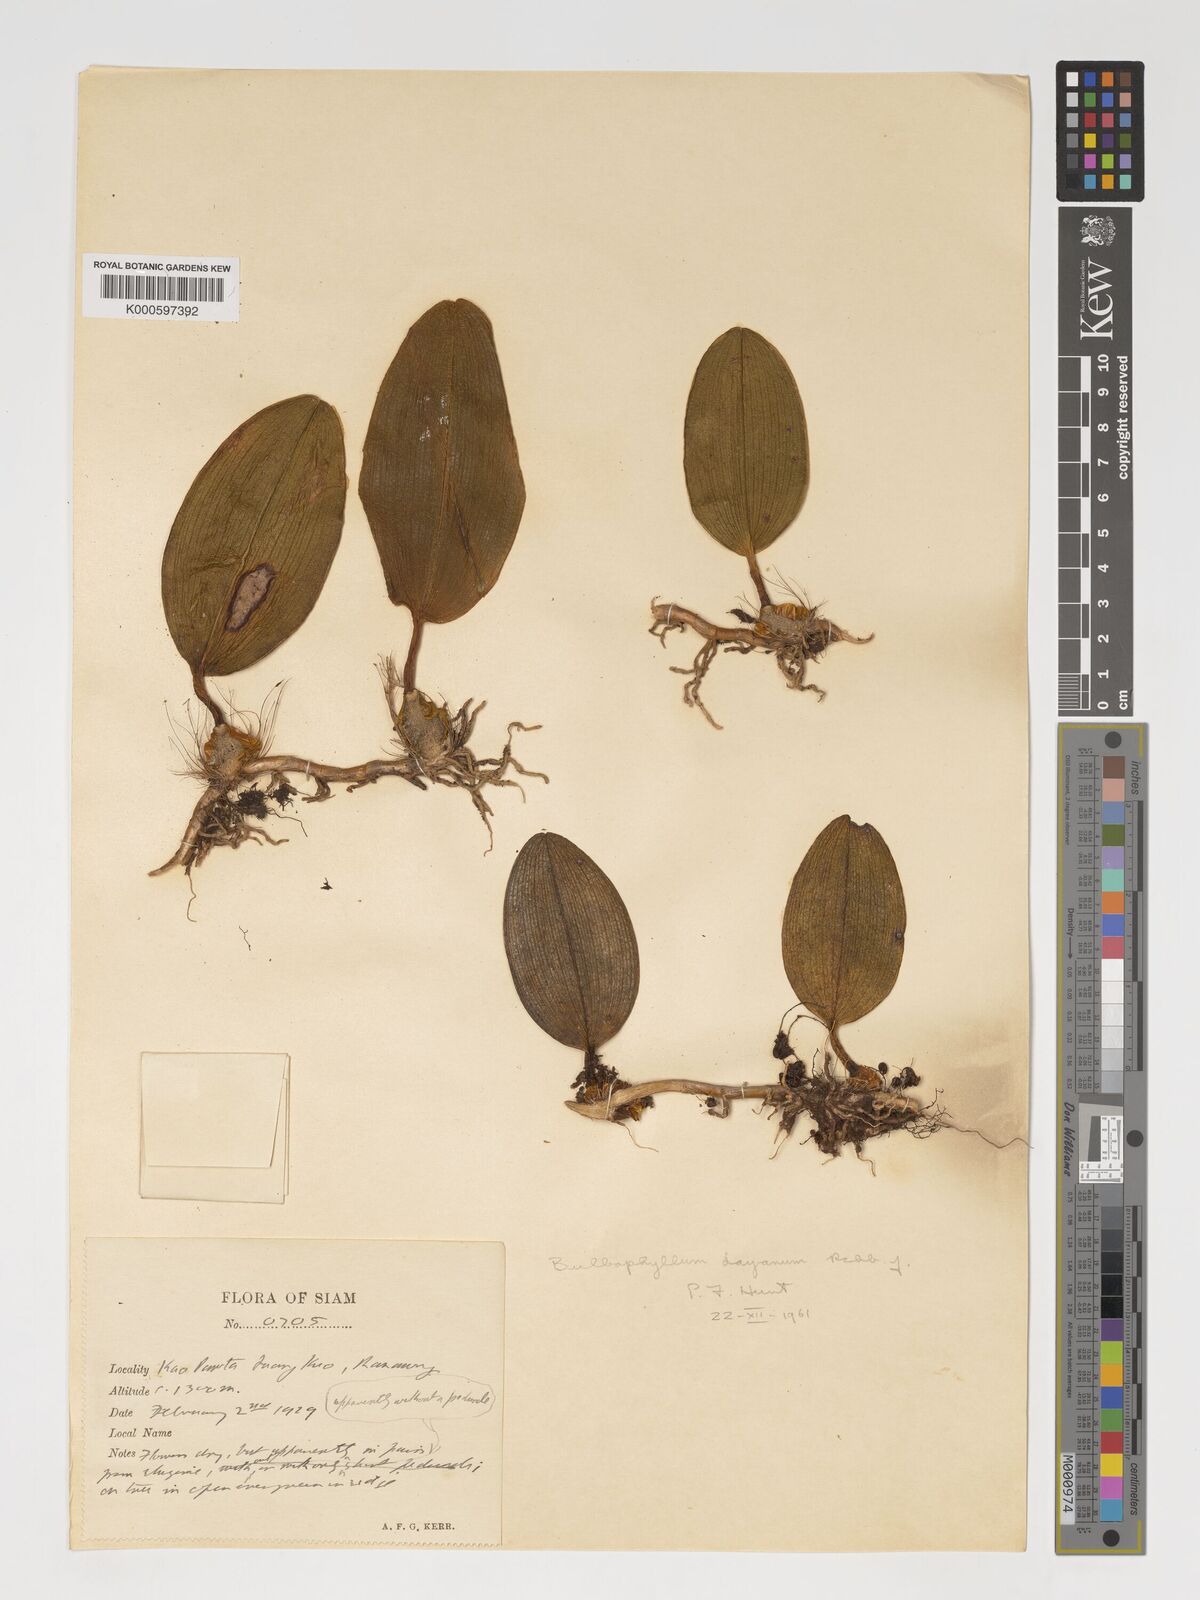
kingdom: Plantae
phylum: Tracheophyta
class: Liliopsida
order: Asparagales
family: Orchidaceae
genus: Bulbophyllum
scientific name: Bulbophyllum dayanum
